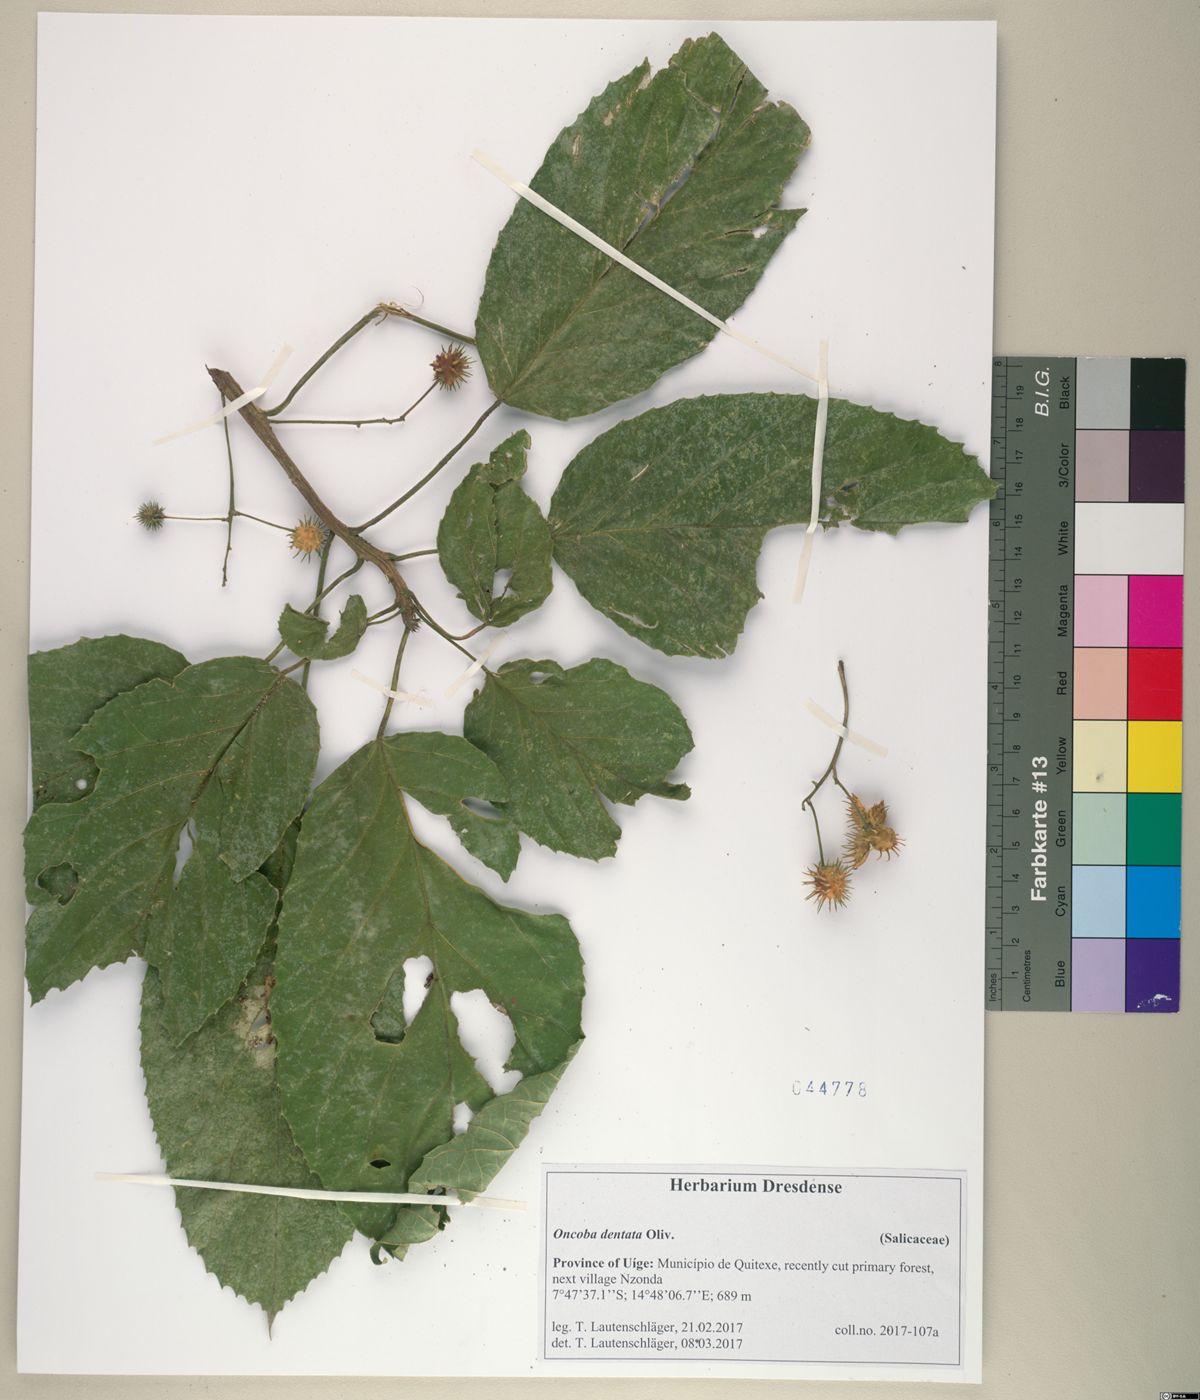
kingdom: Plantae
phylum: Tracheophyta
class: Magnoliopsida
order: Malpighiales
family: Achariaceae
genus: Lindackeria
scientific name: Lindackeria dentata
